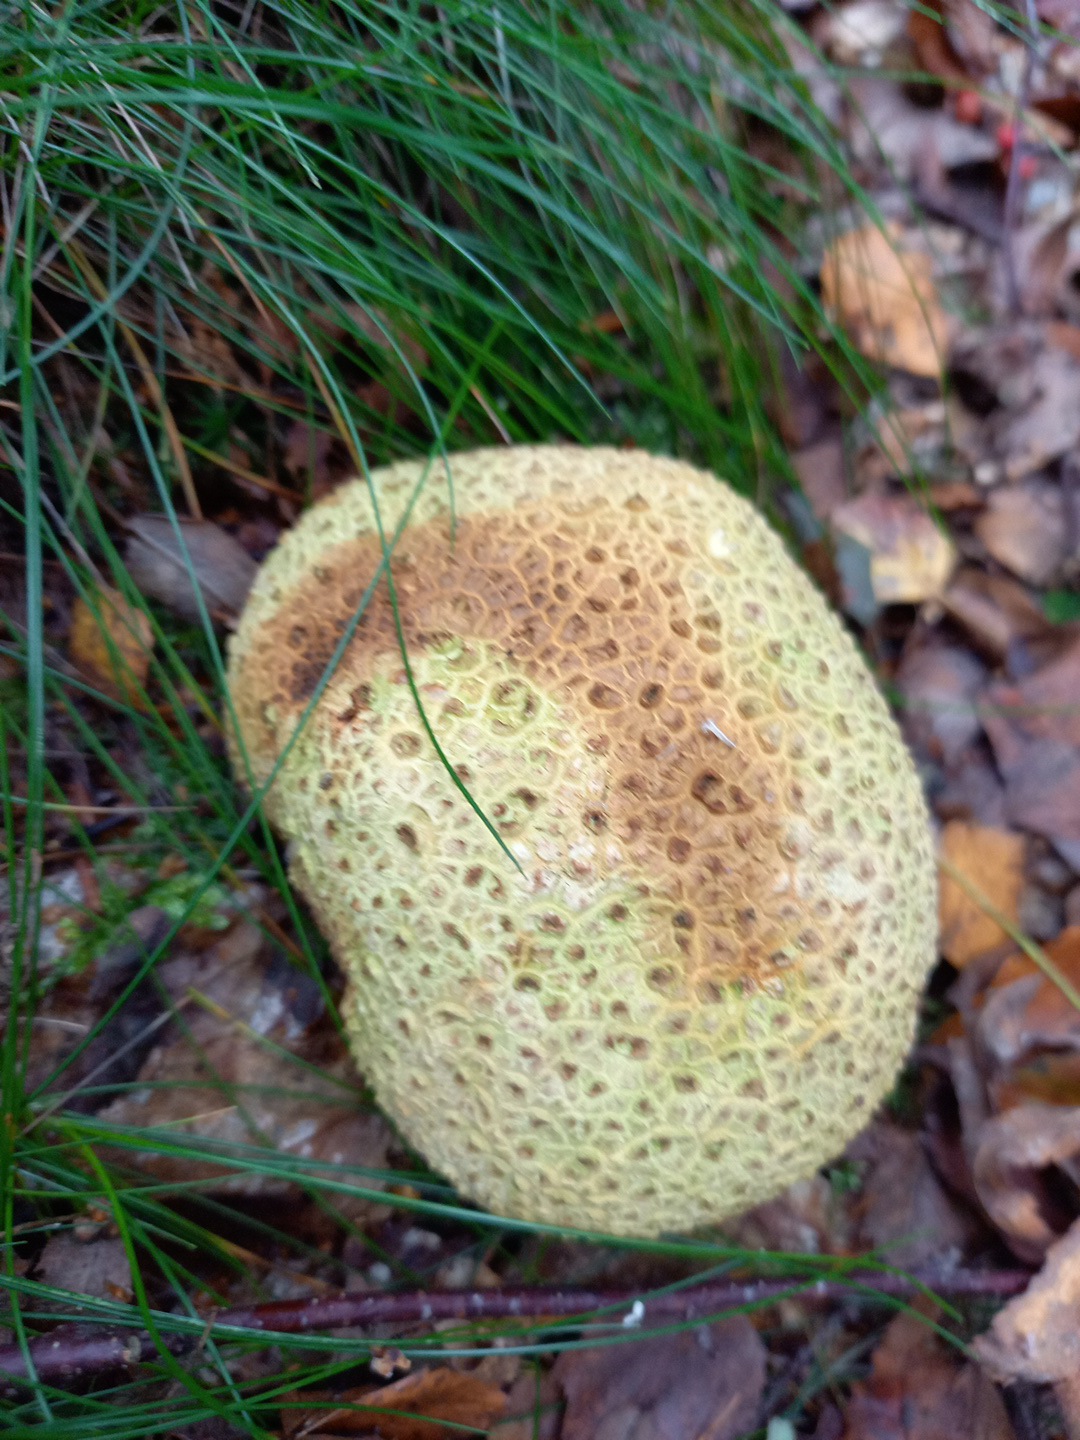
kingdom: Fungi
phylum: Basidiomycota
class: Agaricomycetes
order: Boletales
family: Sclerodermataceae
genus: Scleroderma
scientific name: Scleroderma citrinum
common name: almindelig bruskbold
